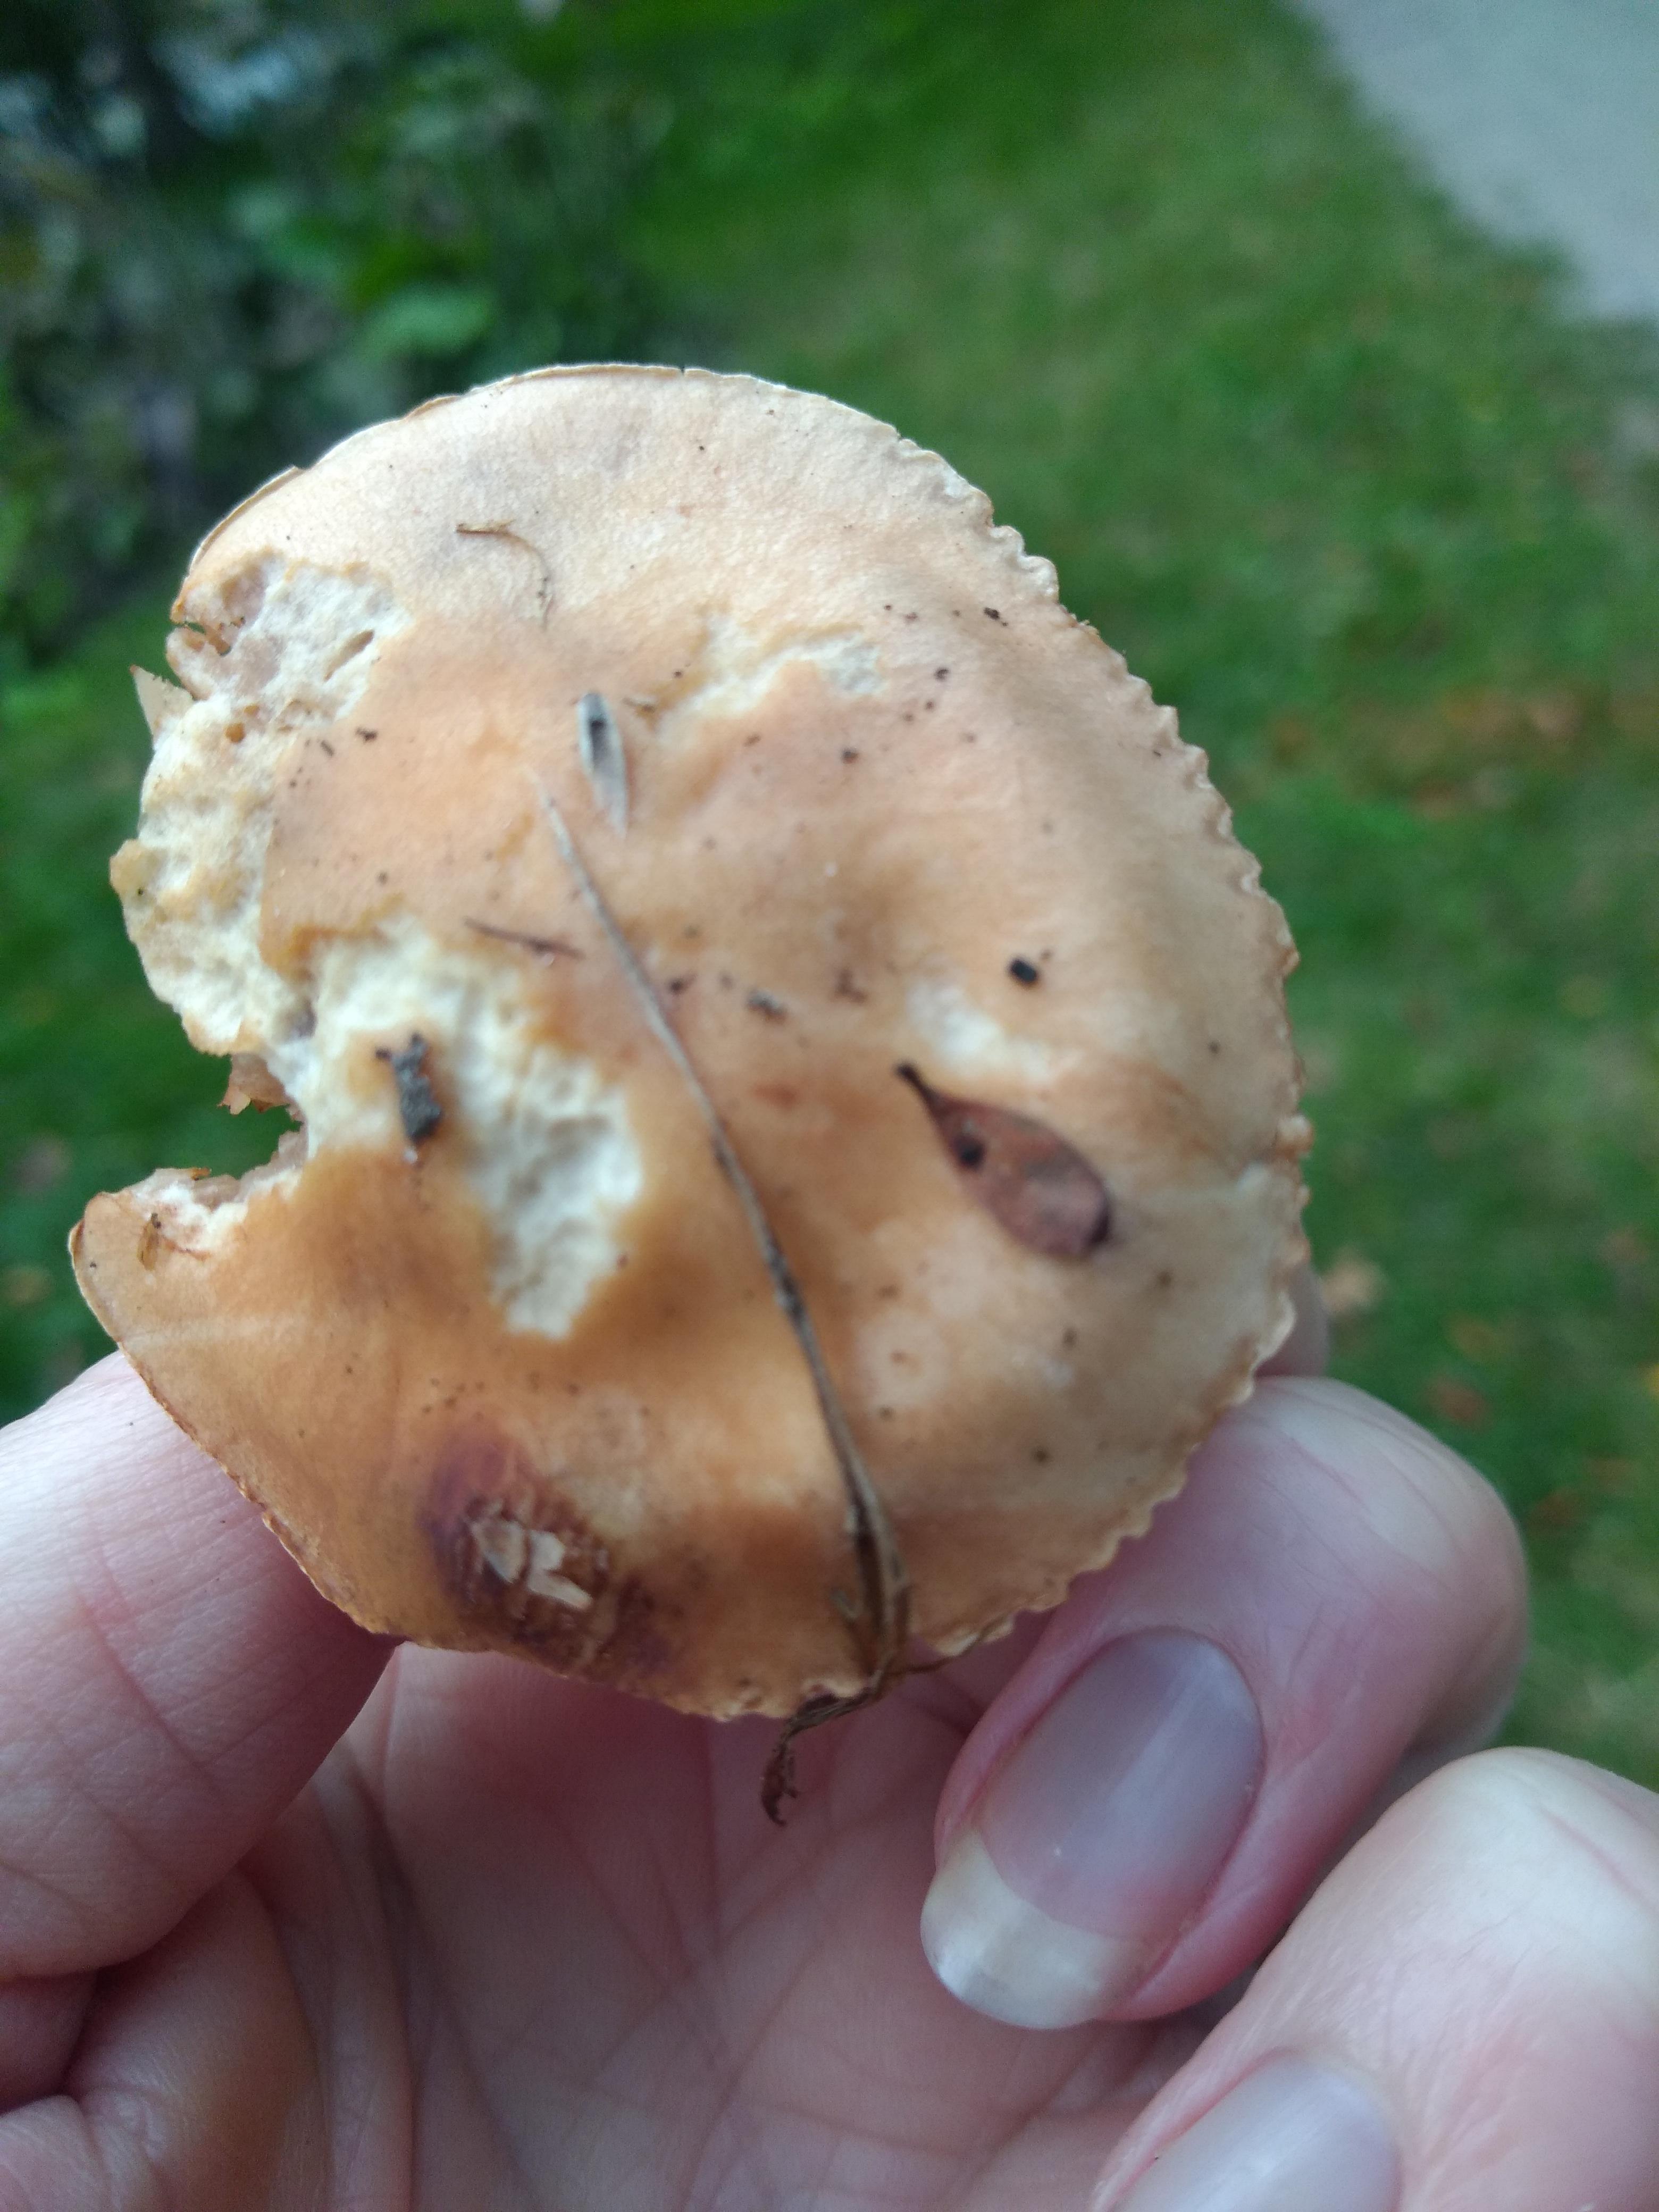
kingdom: Fungi
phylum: Basidiomycota
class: Agaricomycetes
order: Agaricales
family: Hymenogastraceae
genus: Hebeloma
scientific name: Hebeloma
